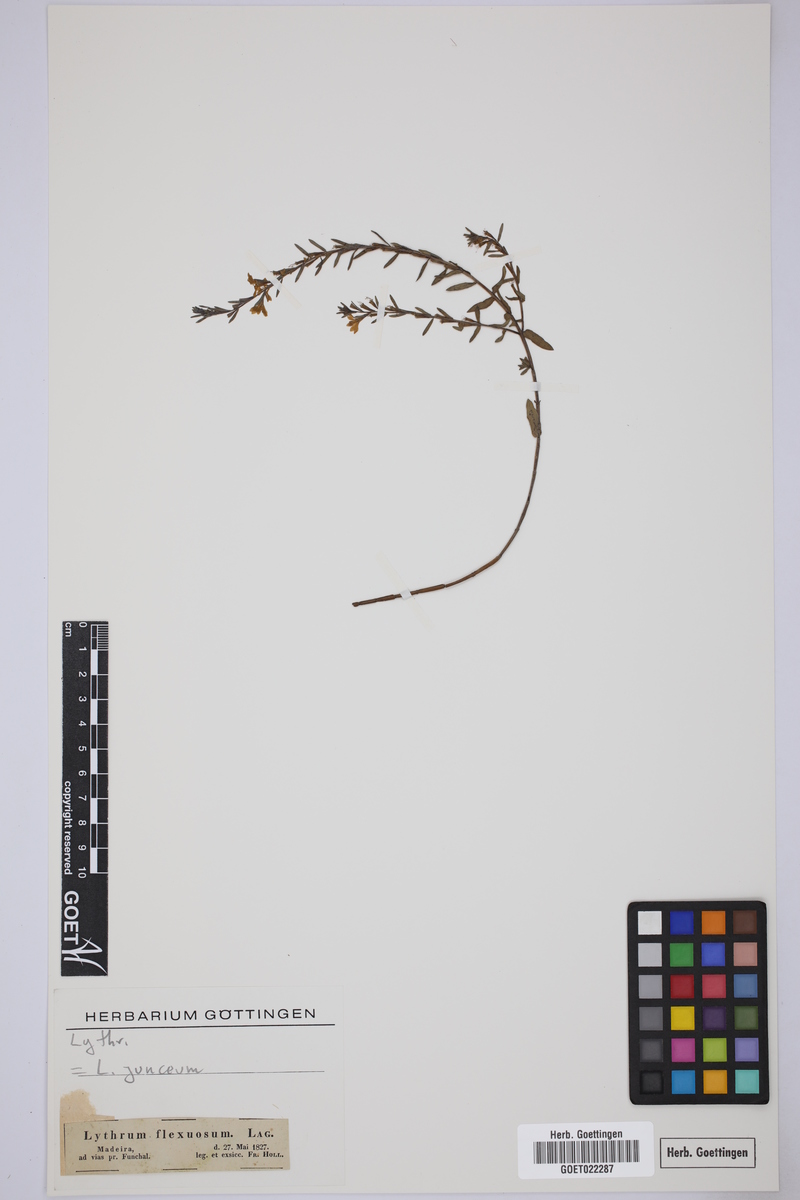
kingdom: Plantae
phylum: Tracheophyta
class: Magnoliopsida
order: Myrtales
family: Lythraceae
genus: Lythrum
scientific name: Lythrum junceum
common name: False grass-poly
